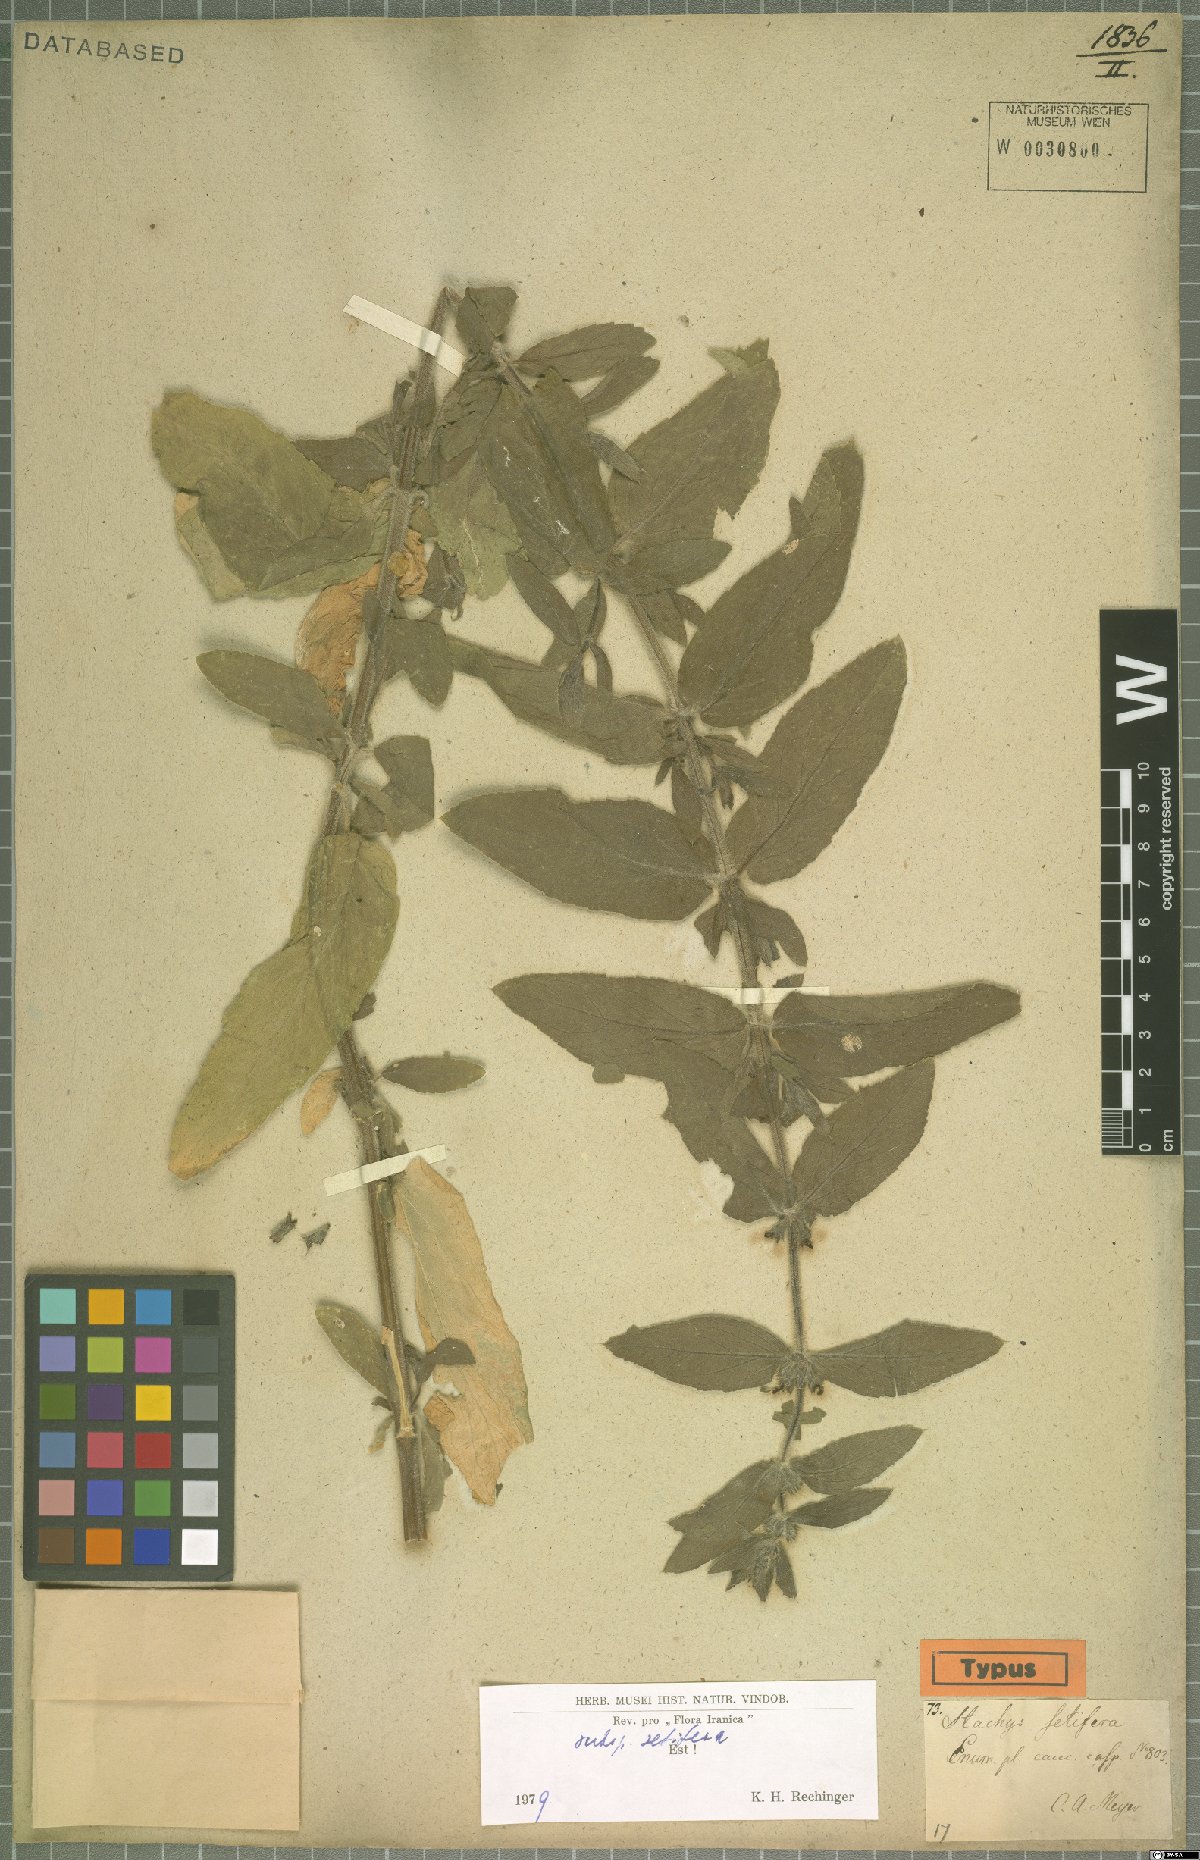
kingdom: Plantae
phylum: Tracheophyta
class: Magnoliopsida
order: Lamiales
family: Lamiaceae
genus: Stachys
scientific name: Stachys setifera
